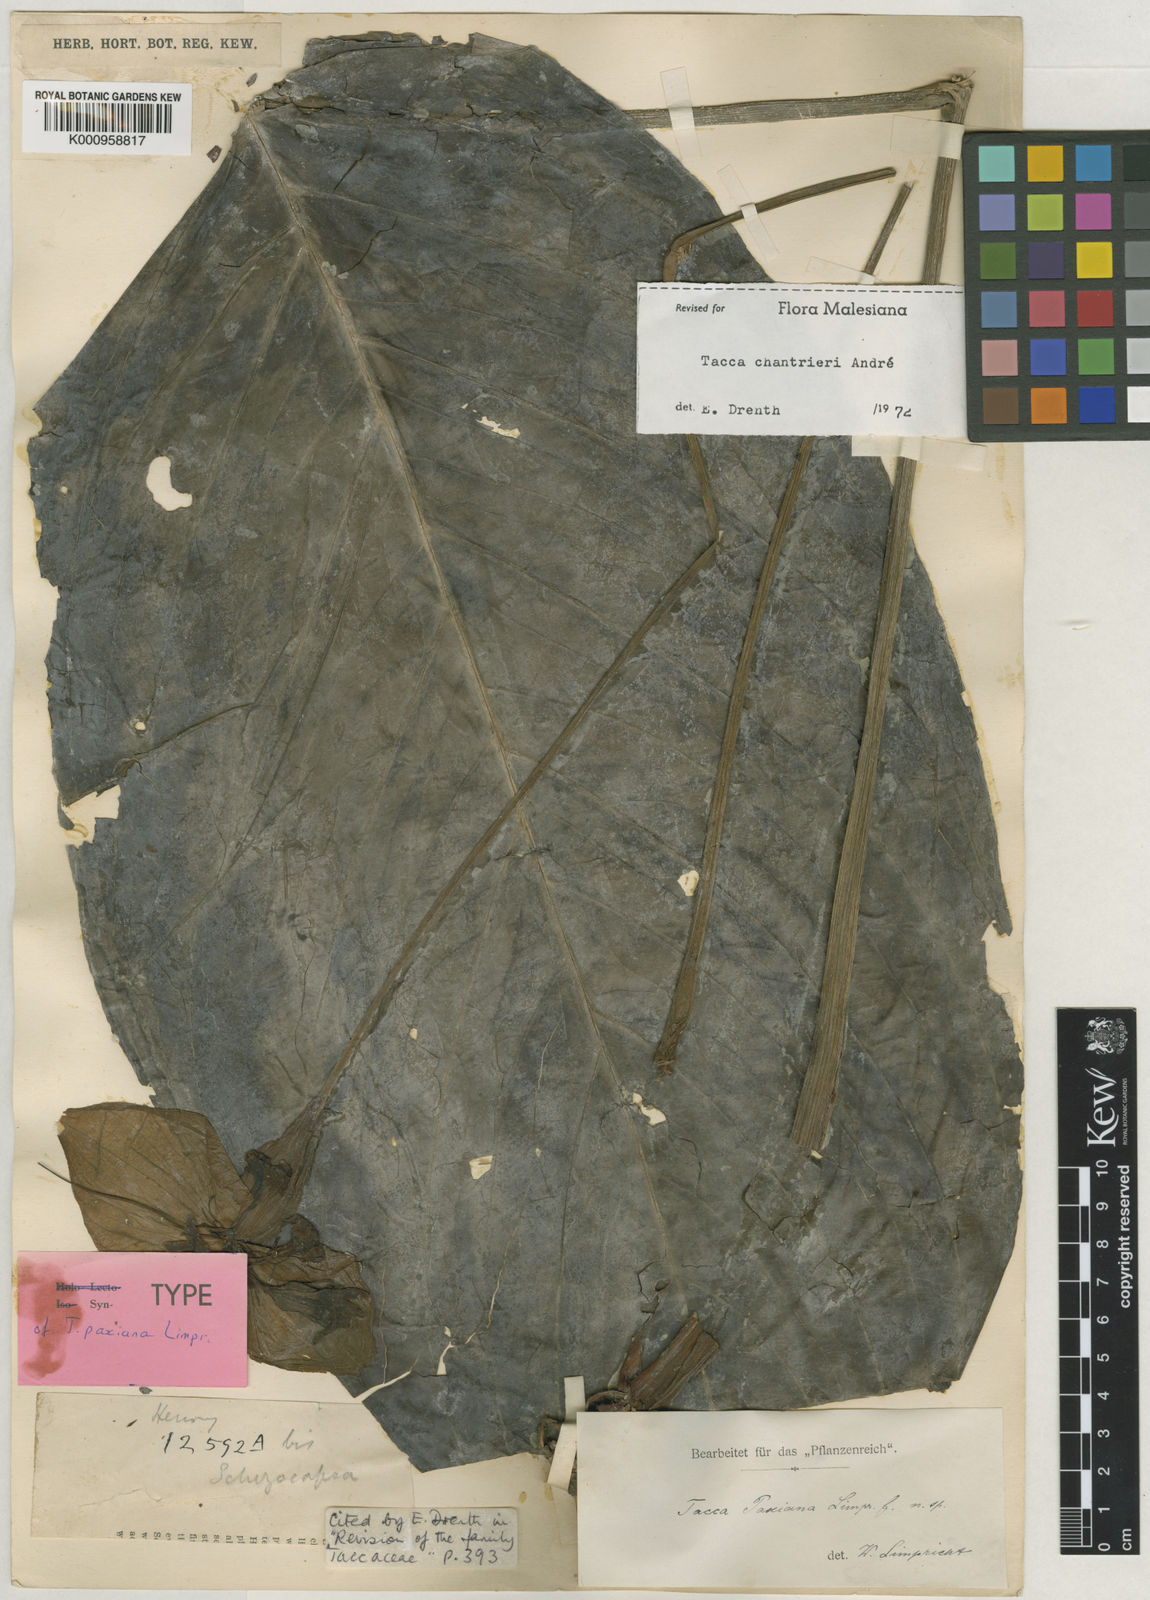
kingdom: Plantae
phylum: Tracheophyta
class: Liliopsida
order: Dioscoreales
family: Dioscoreaceae
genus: Tacca
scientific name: Tacca
